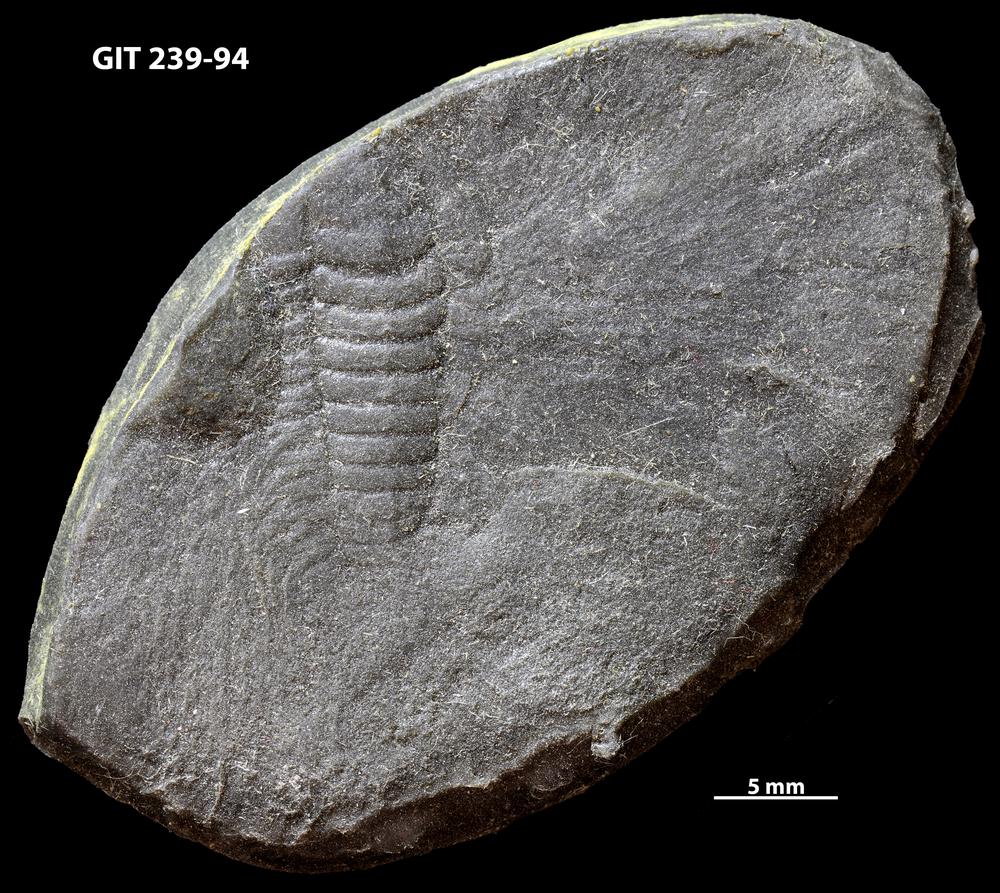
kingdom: Animalia
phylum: Arthropoda
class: Trilobita
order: Ptychopariida
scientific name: Ptychopariida
